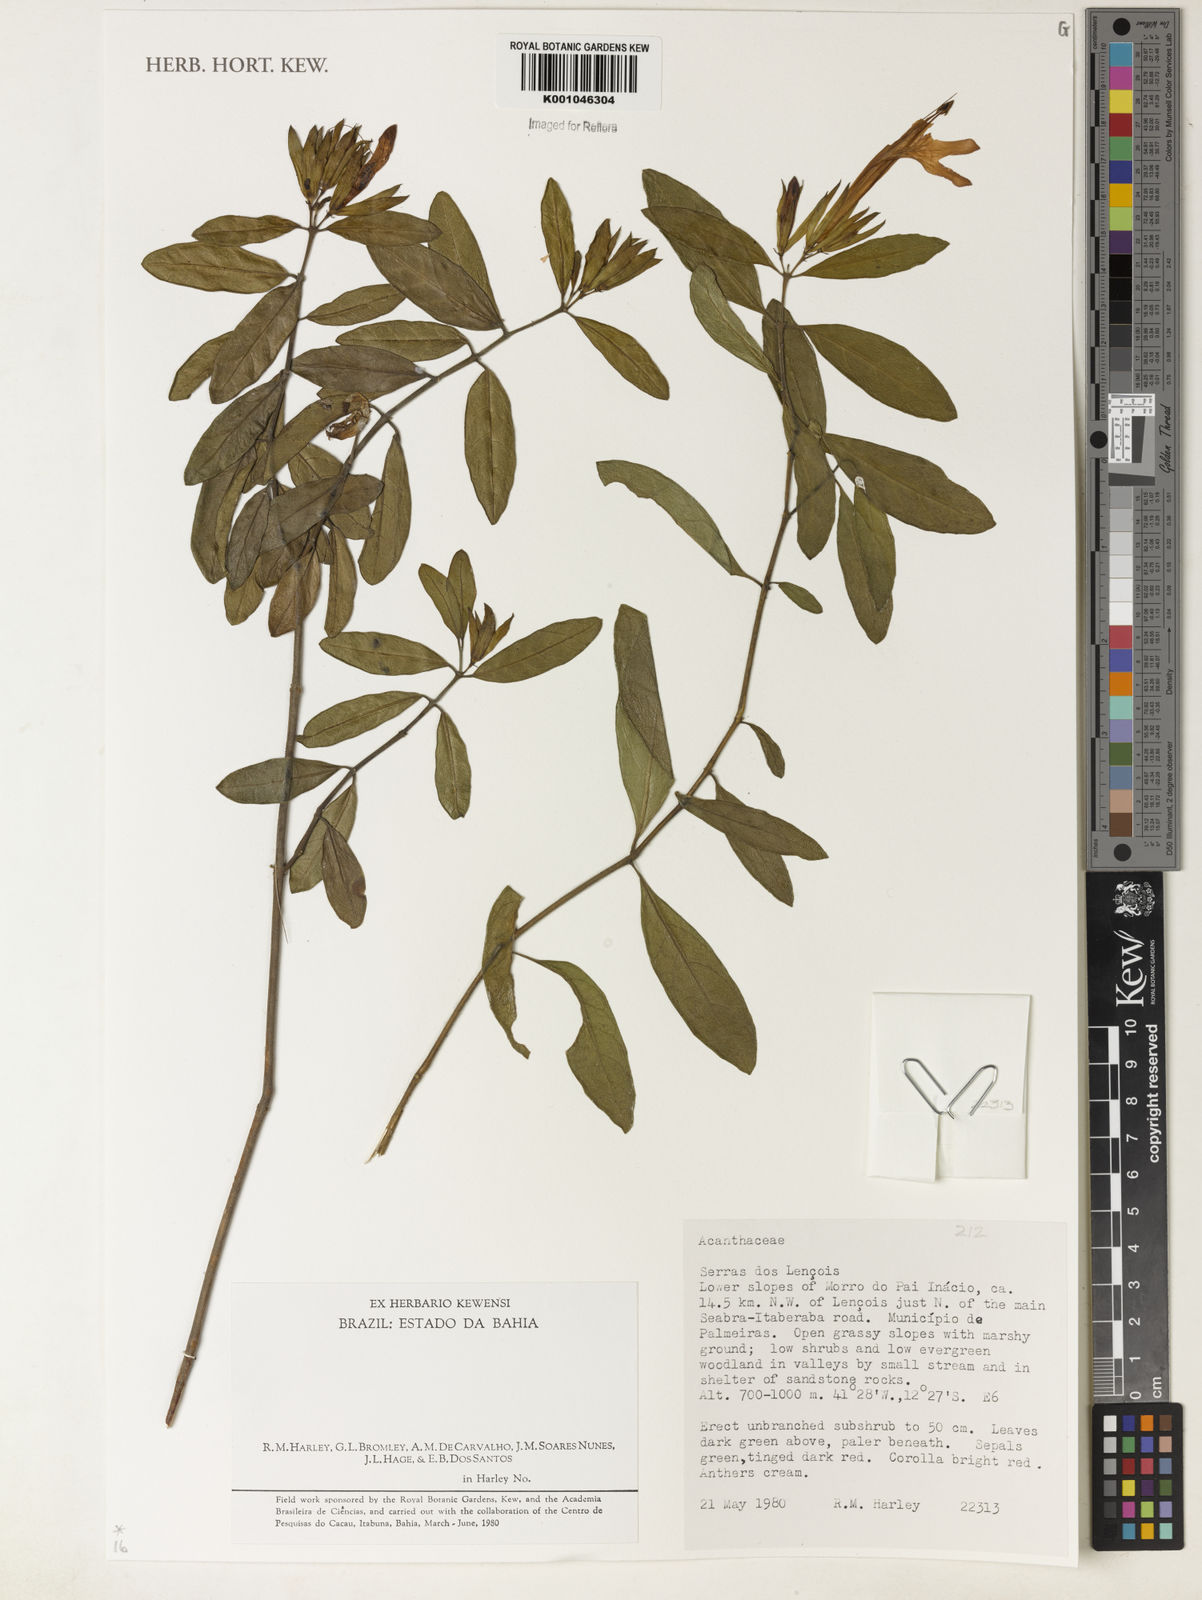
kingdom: Plantae
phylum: Tracheophyta
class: Magnoliopsida
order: Lamiales
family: Acanthaceae
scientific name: Acanthaceae
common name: Acanthaceae
